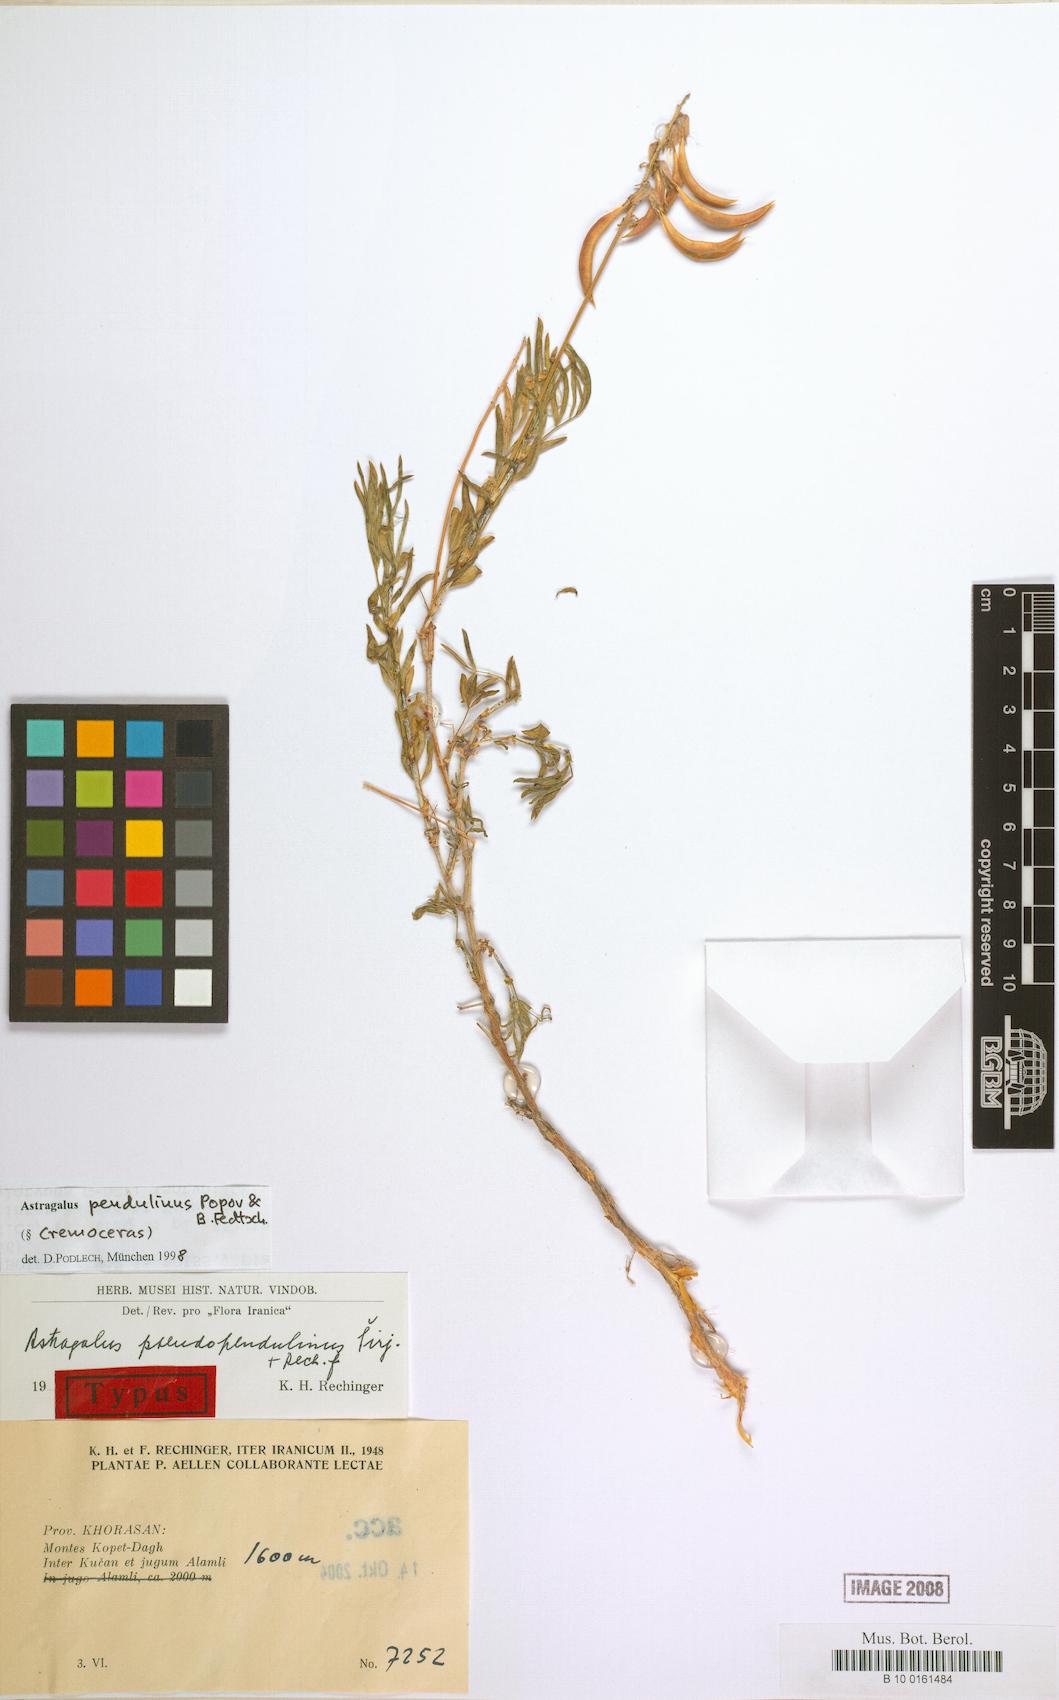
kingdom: Plantae
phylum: Tracheophyta
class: Magnoliopsida
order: Fabales
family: Fabaceae
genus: Astragalus
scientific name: Astragalus pendulinus
